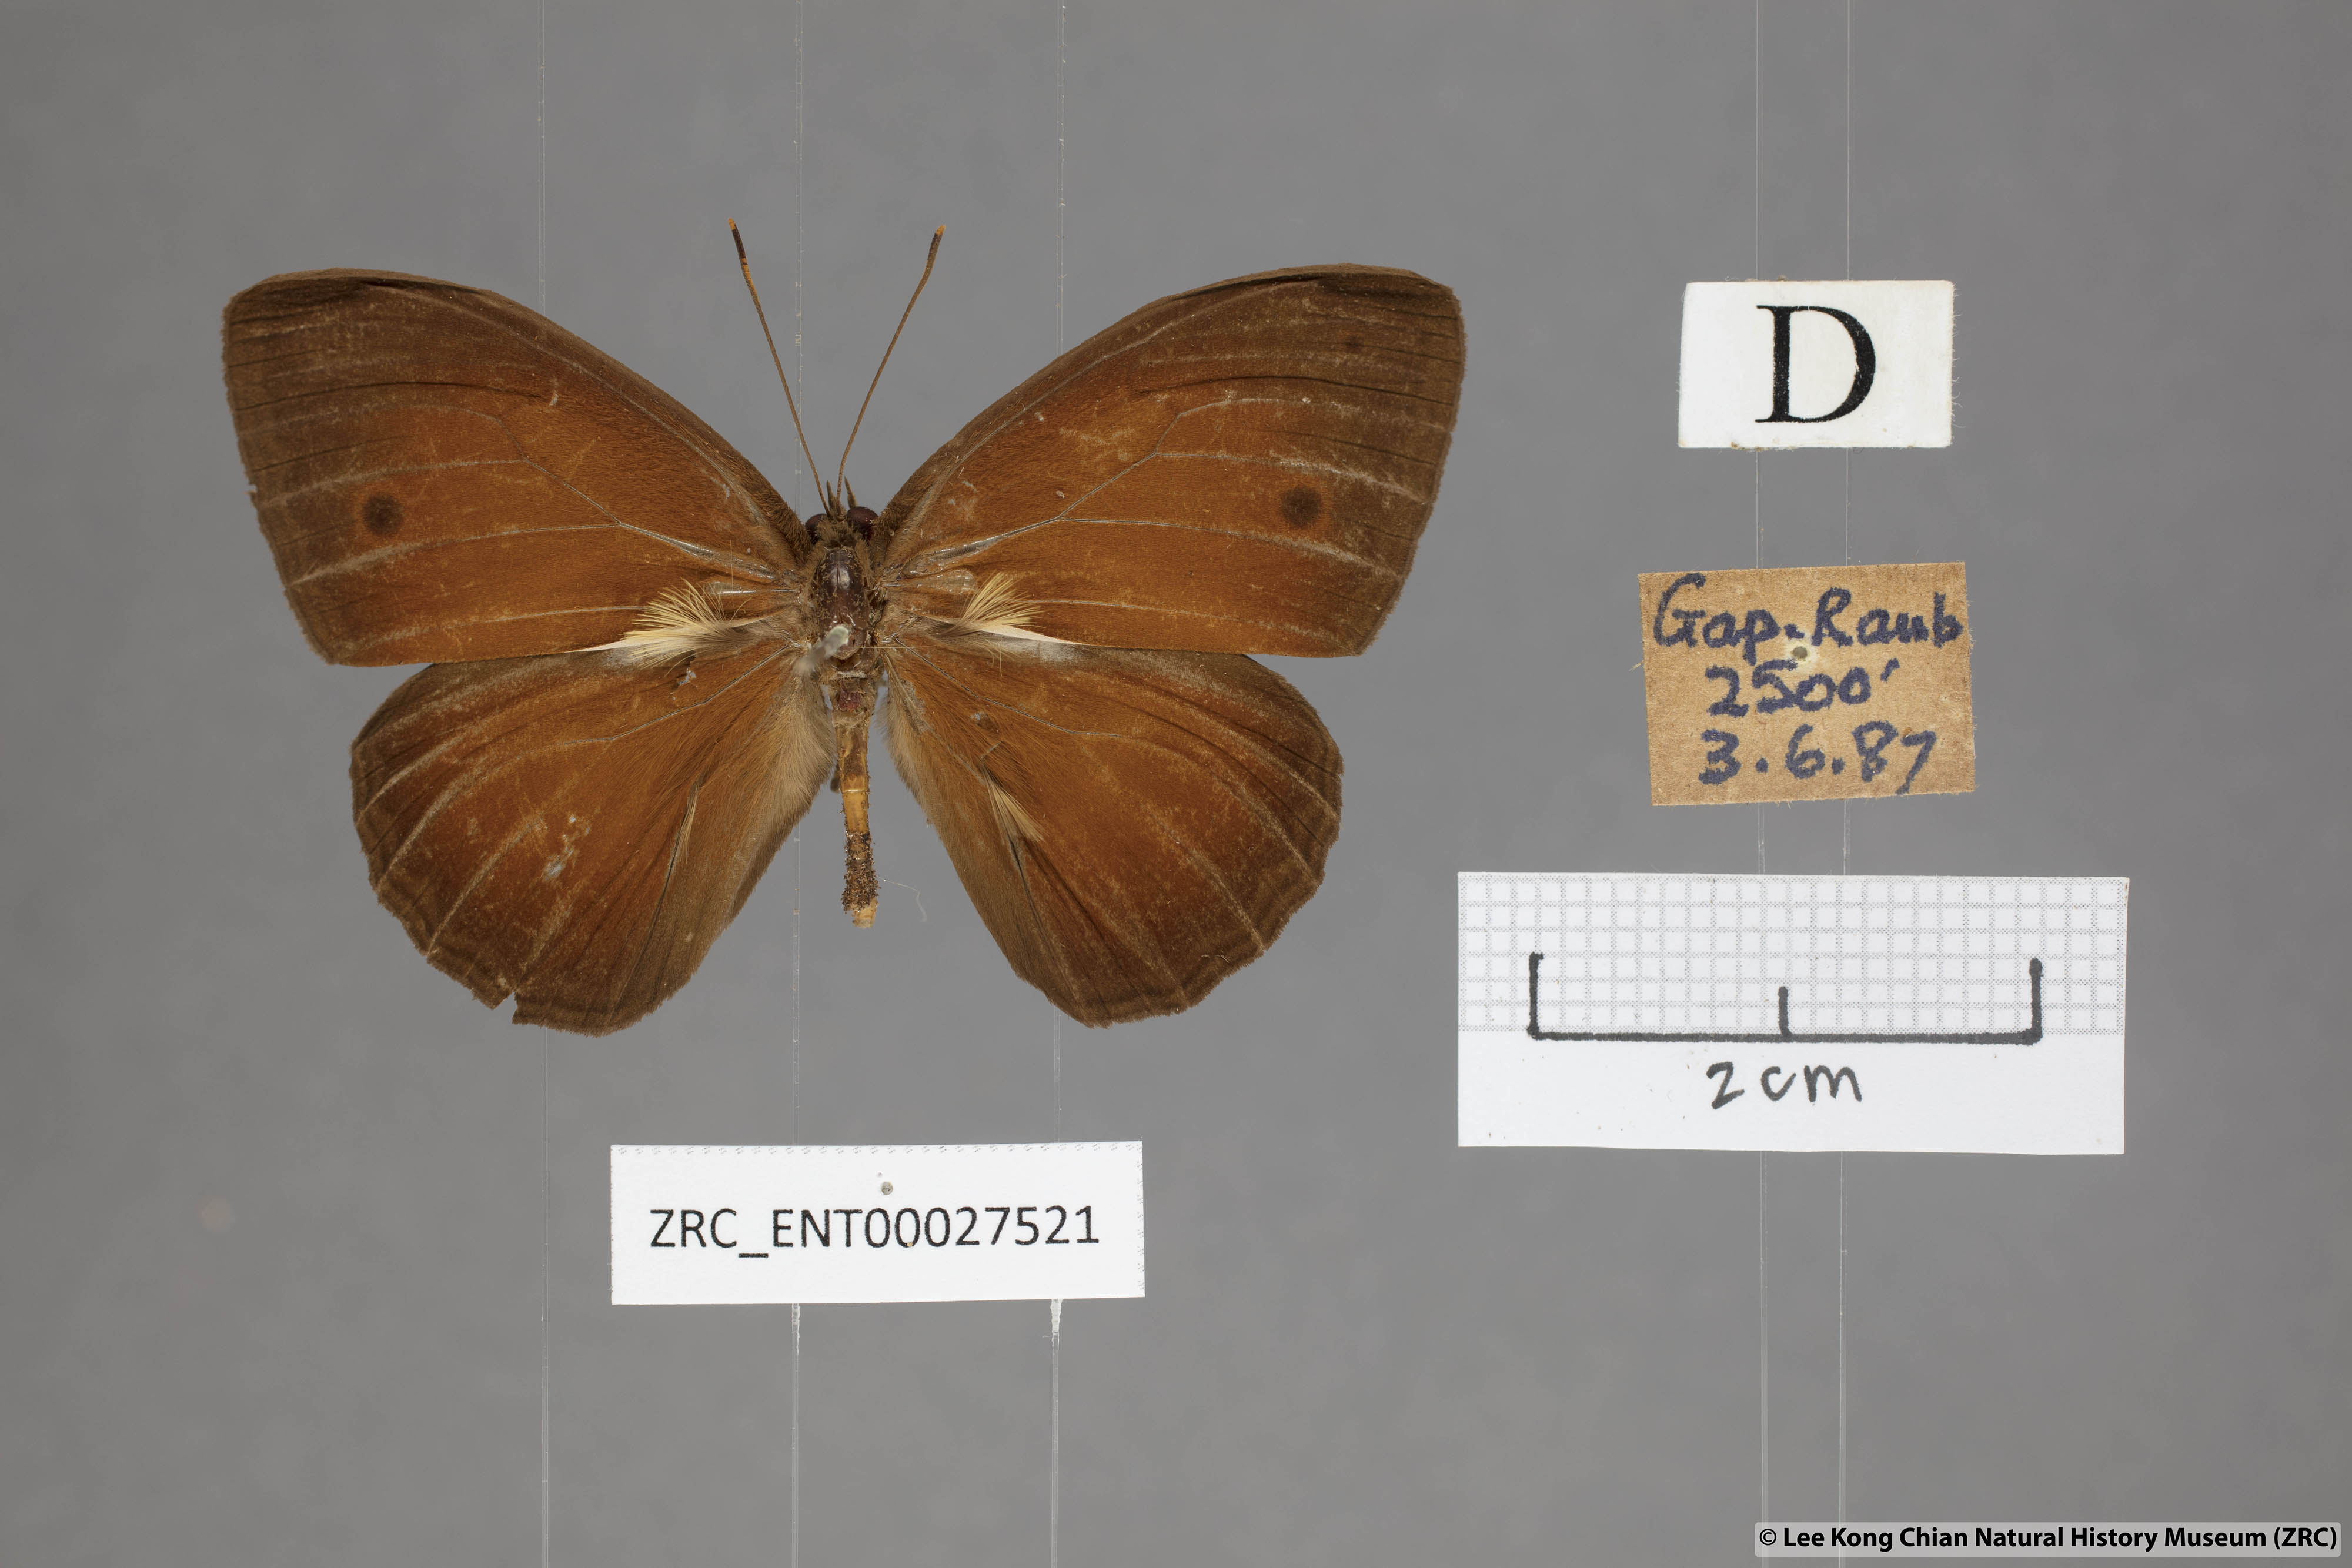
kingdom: Animalia
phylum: Arthropoda
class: Insecta
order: Lepidoptera
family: Nymphalidae
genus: Mycalesis
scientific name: Mycalesis oroatis
